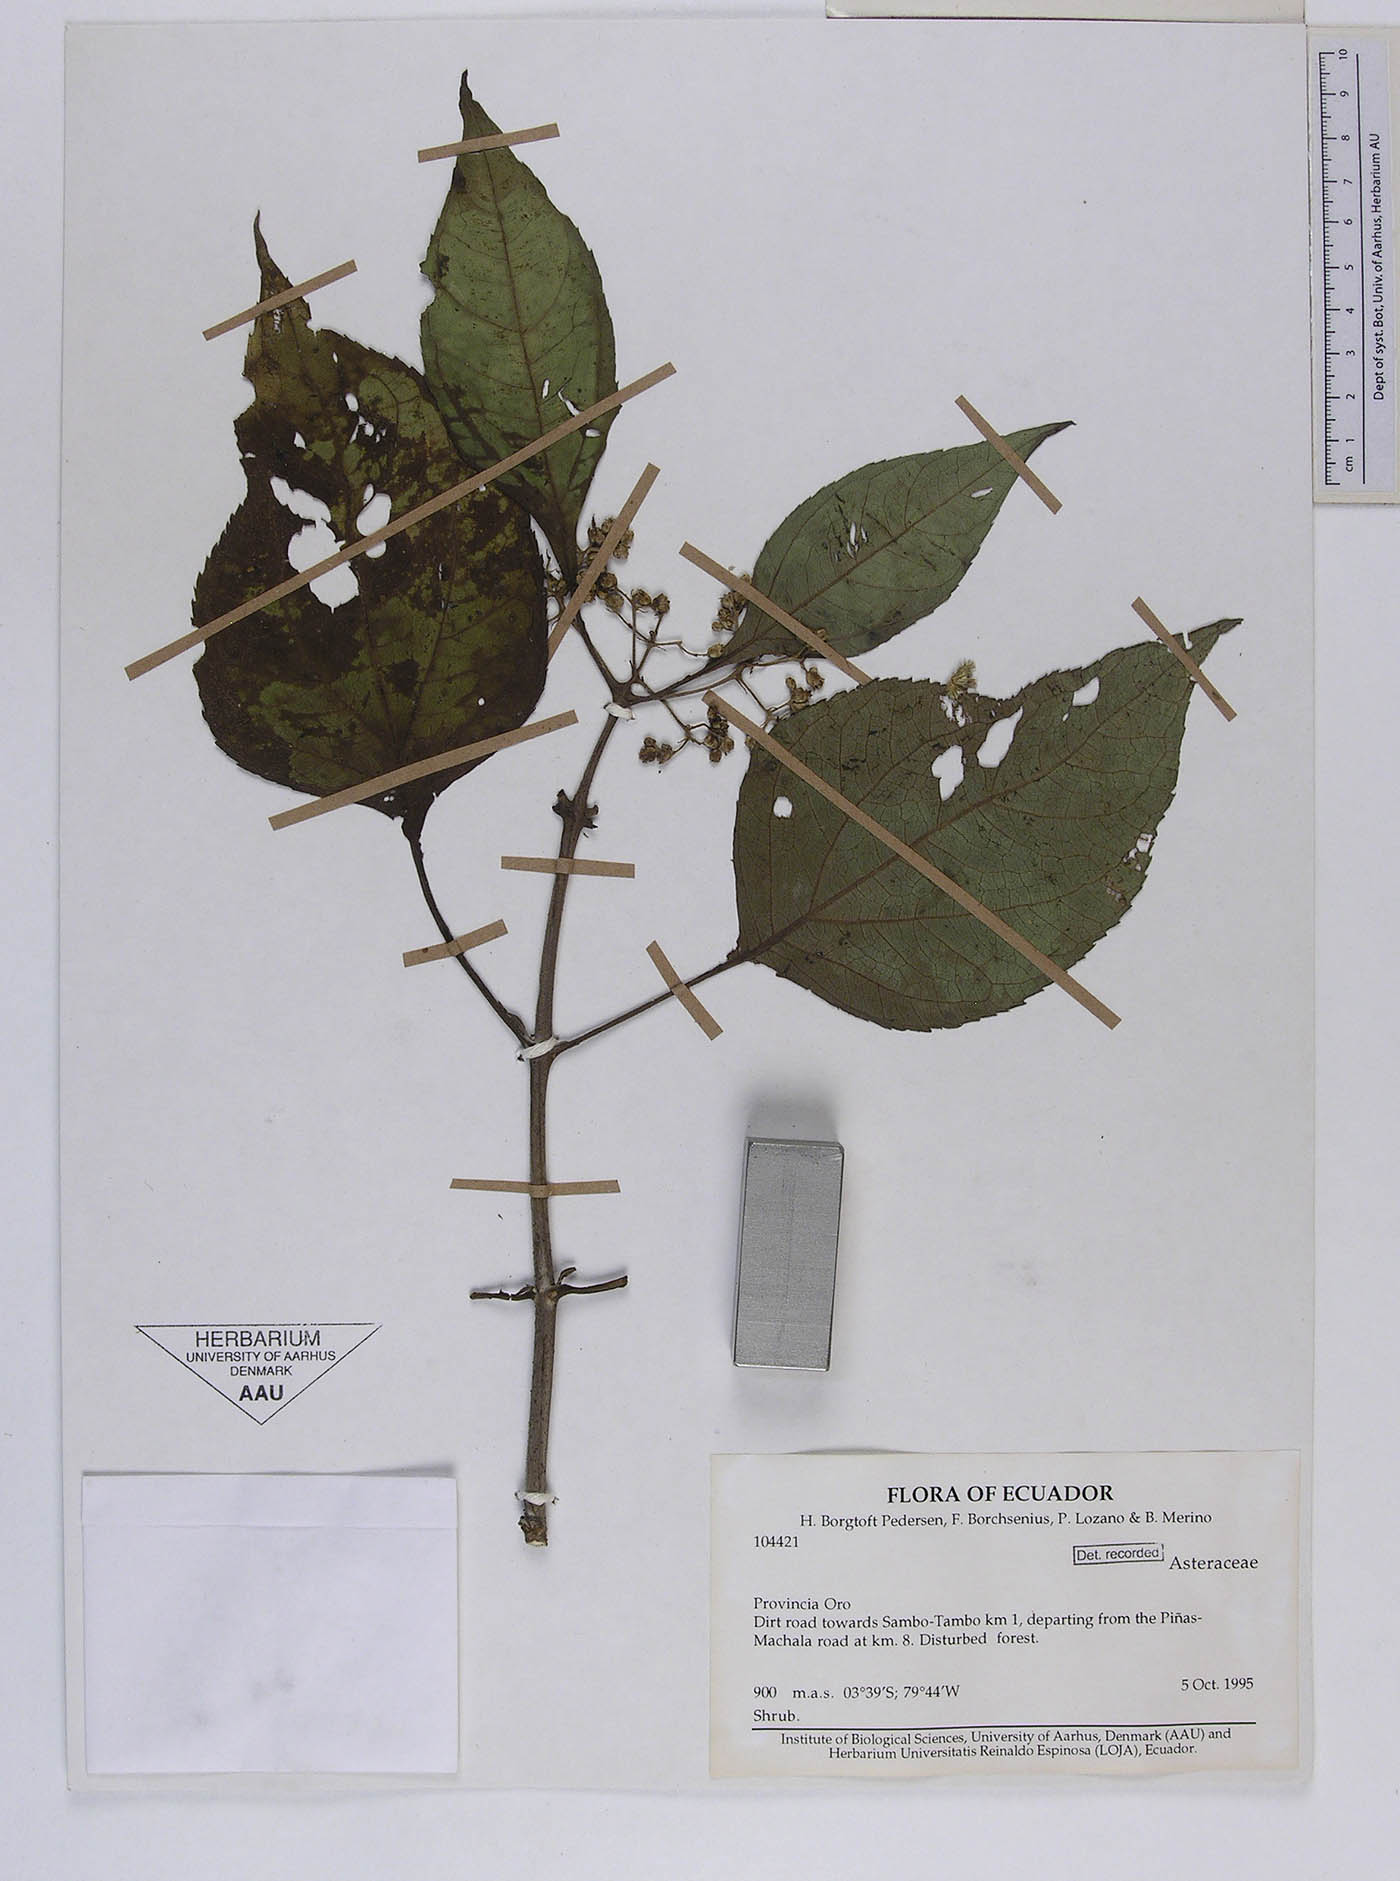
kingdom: Plantae
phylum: Tracheophyta
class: Magnoliopsida
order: Asterales
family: Asteraceae
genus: Clibadium
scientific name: Clibadium laxum
